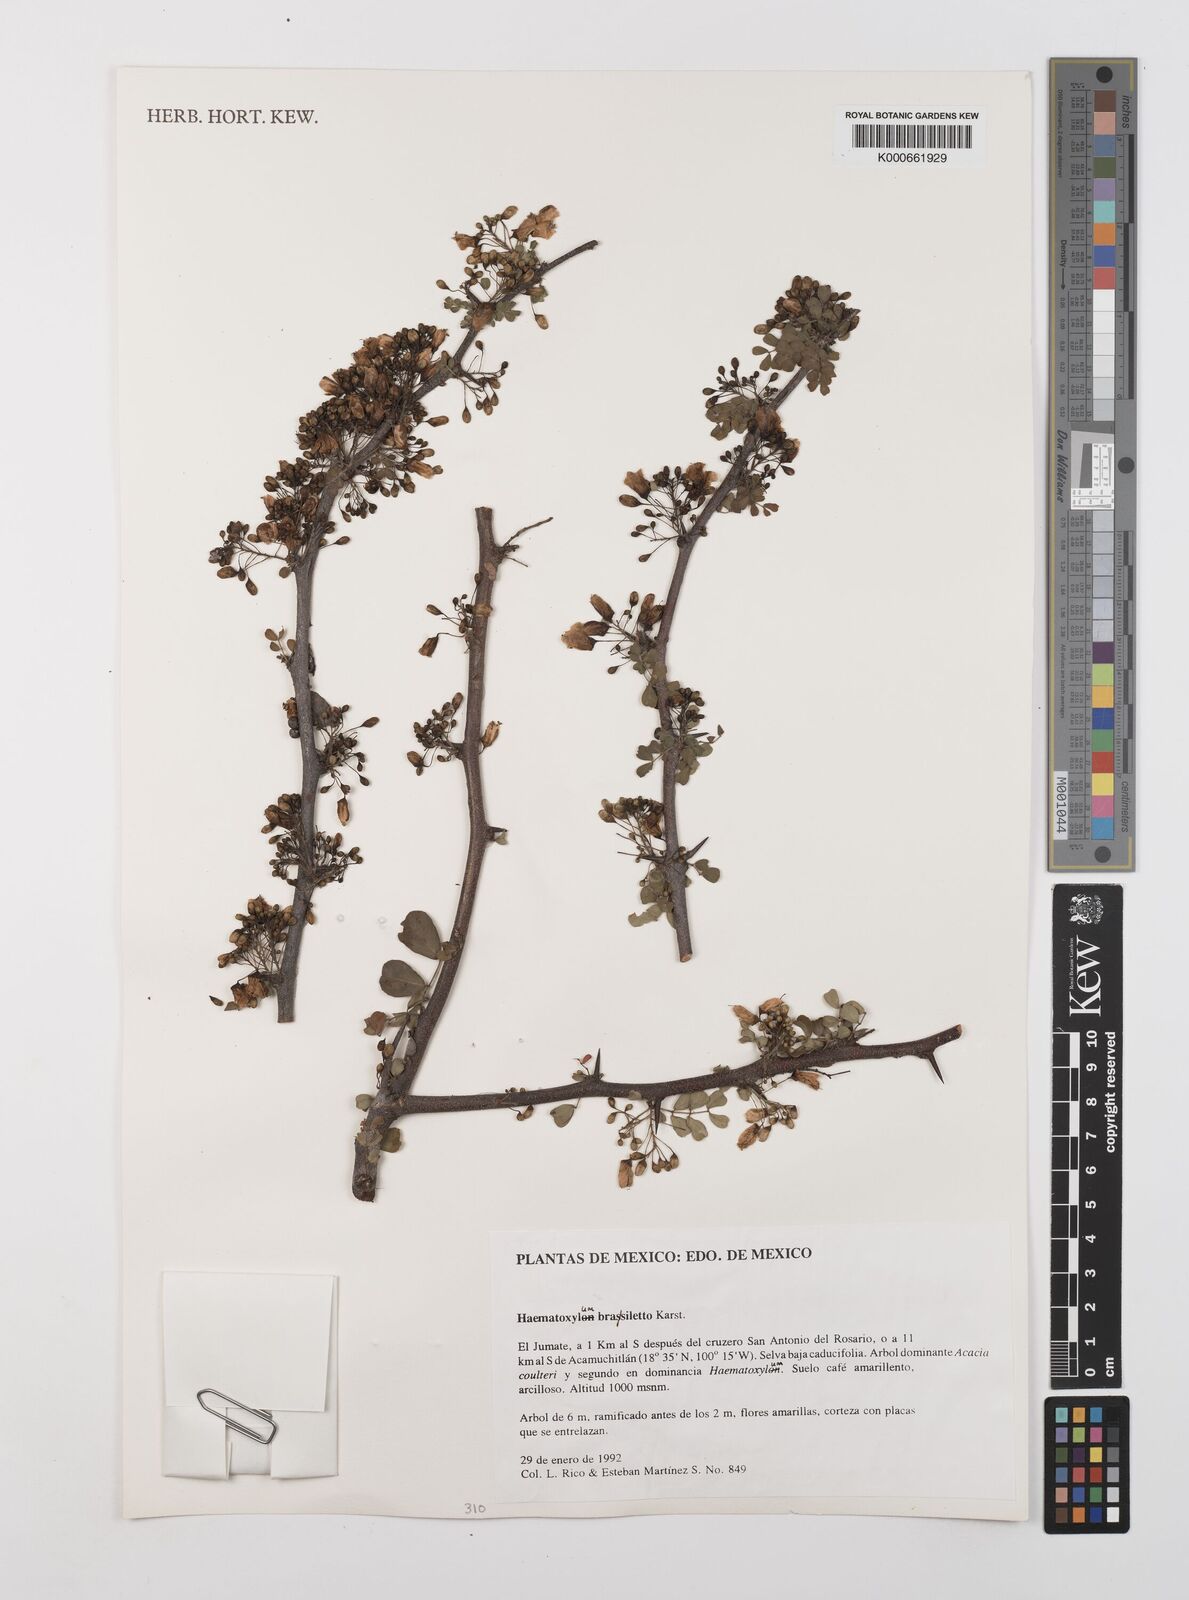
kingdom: Plantae
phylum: Tracheophyta
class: Magnoliopsida
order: Fabales
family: Fabaceae
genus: Haematoxylum
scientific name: Haematoxylum brasiletto
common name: Peachwood
